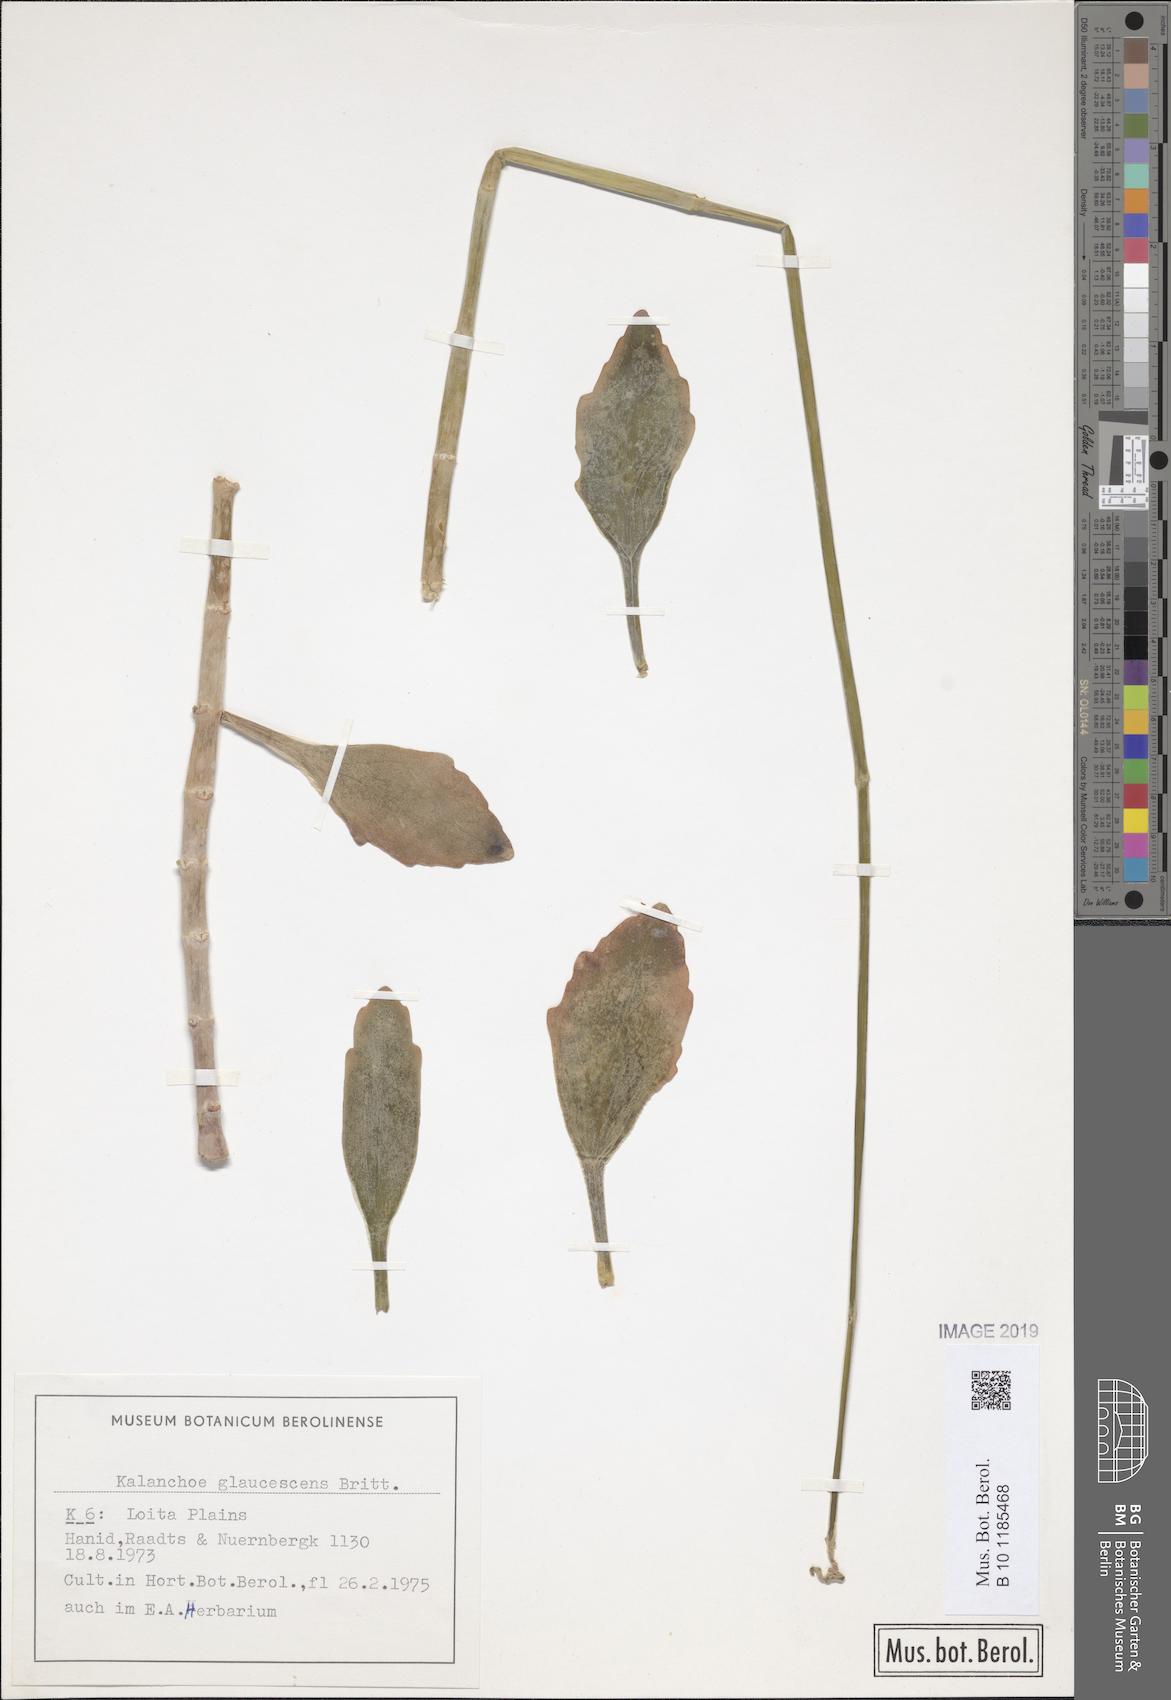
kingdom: Plantae
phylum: Tracheophyta
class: Magnoliopsida
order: Saxifragales
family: Crassulaceae
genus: Kalanchoe
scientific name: Kalanchoe glaucescens
